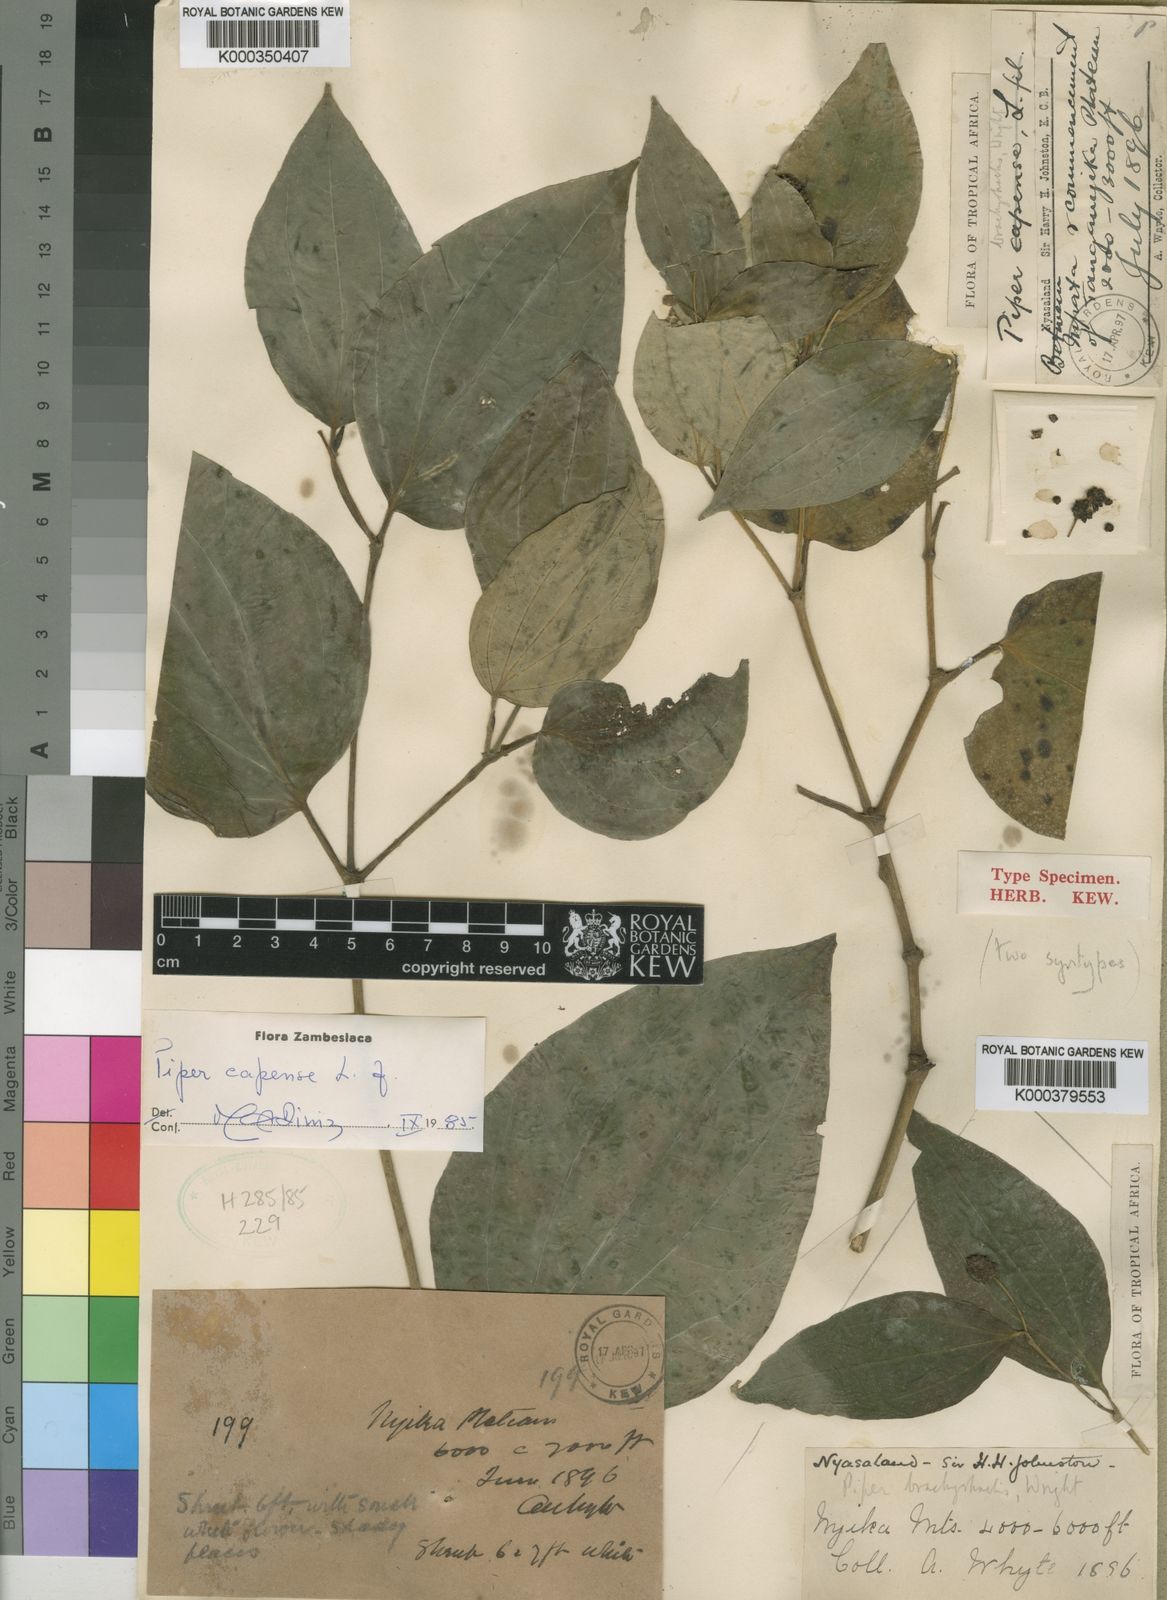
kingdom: Plantae
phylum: Tracheophyta
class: Magnoliopsida
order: Piperales
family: Piperaceae
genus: Piper
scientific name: Piper capense
